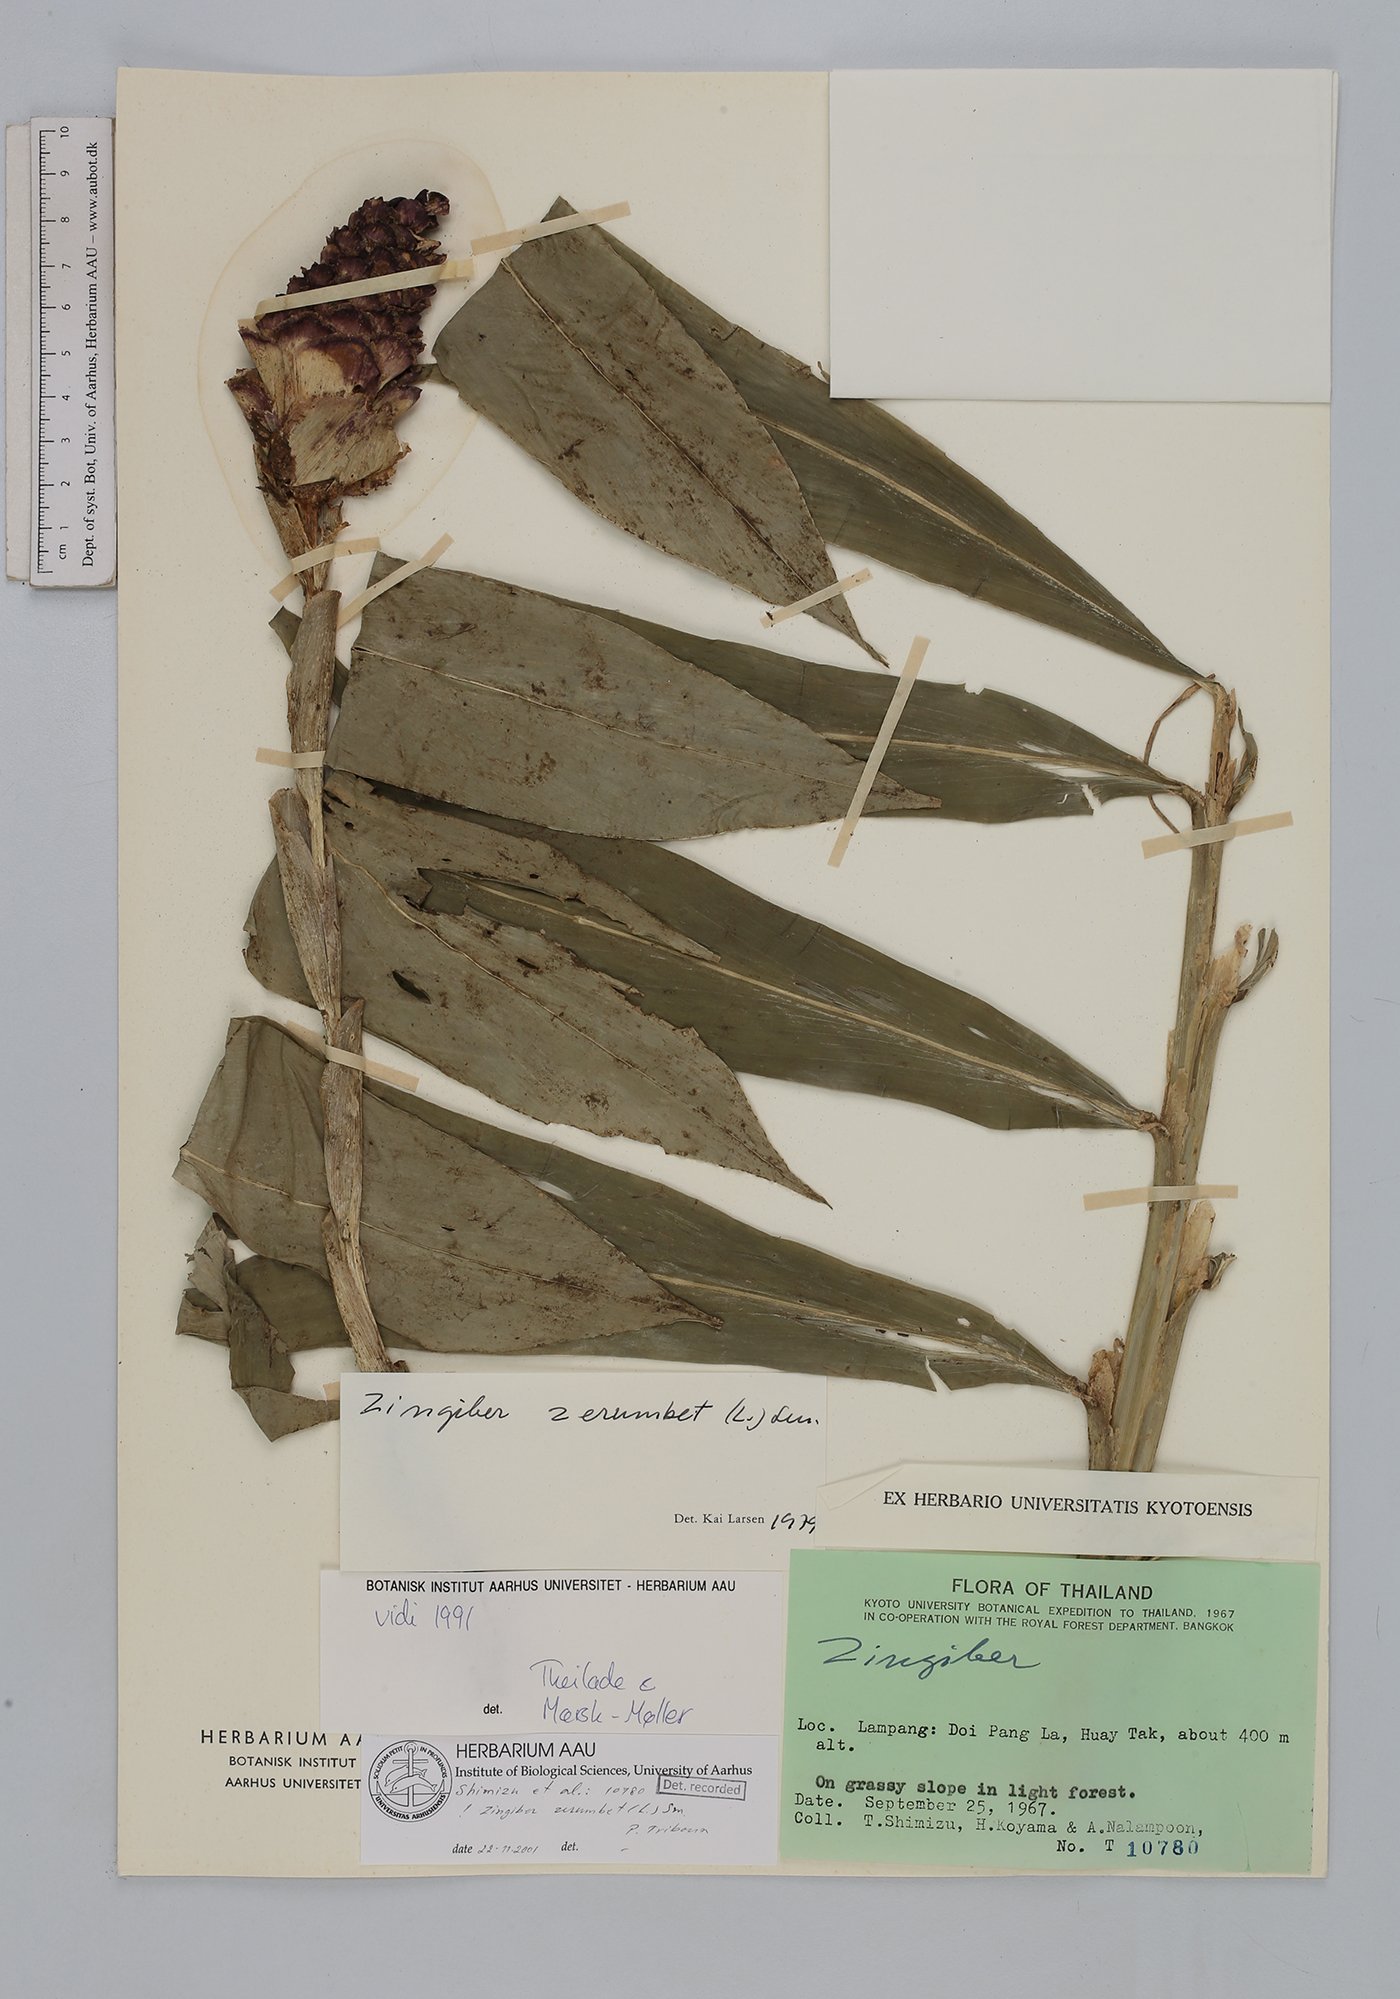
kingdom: Plantae
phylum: Tracheophyta
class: Liliopsida
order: Zingiberales
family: Zingiberaceae
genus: Zingiber
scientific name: Zingiber zerumbet
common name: Bitter ginger
